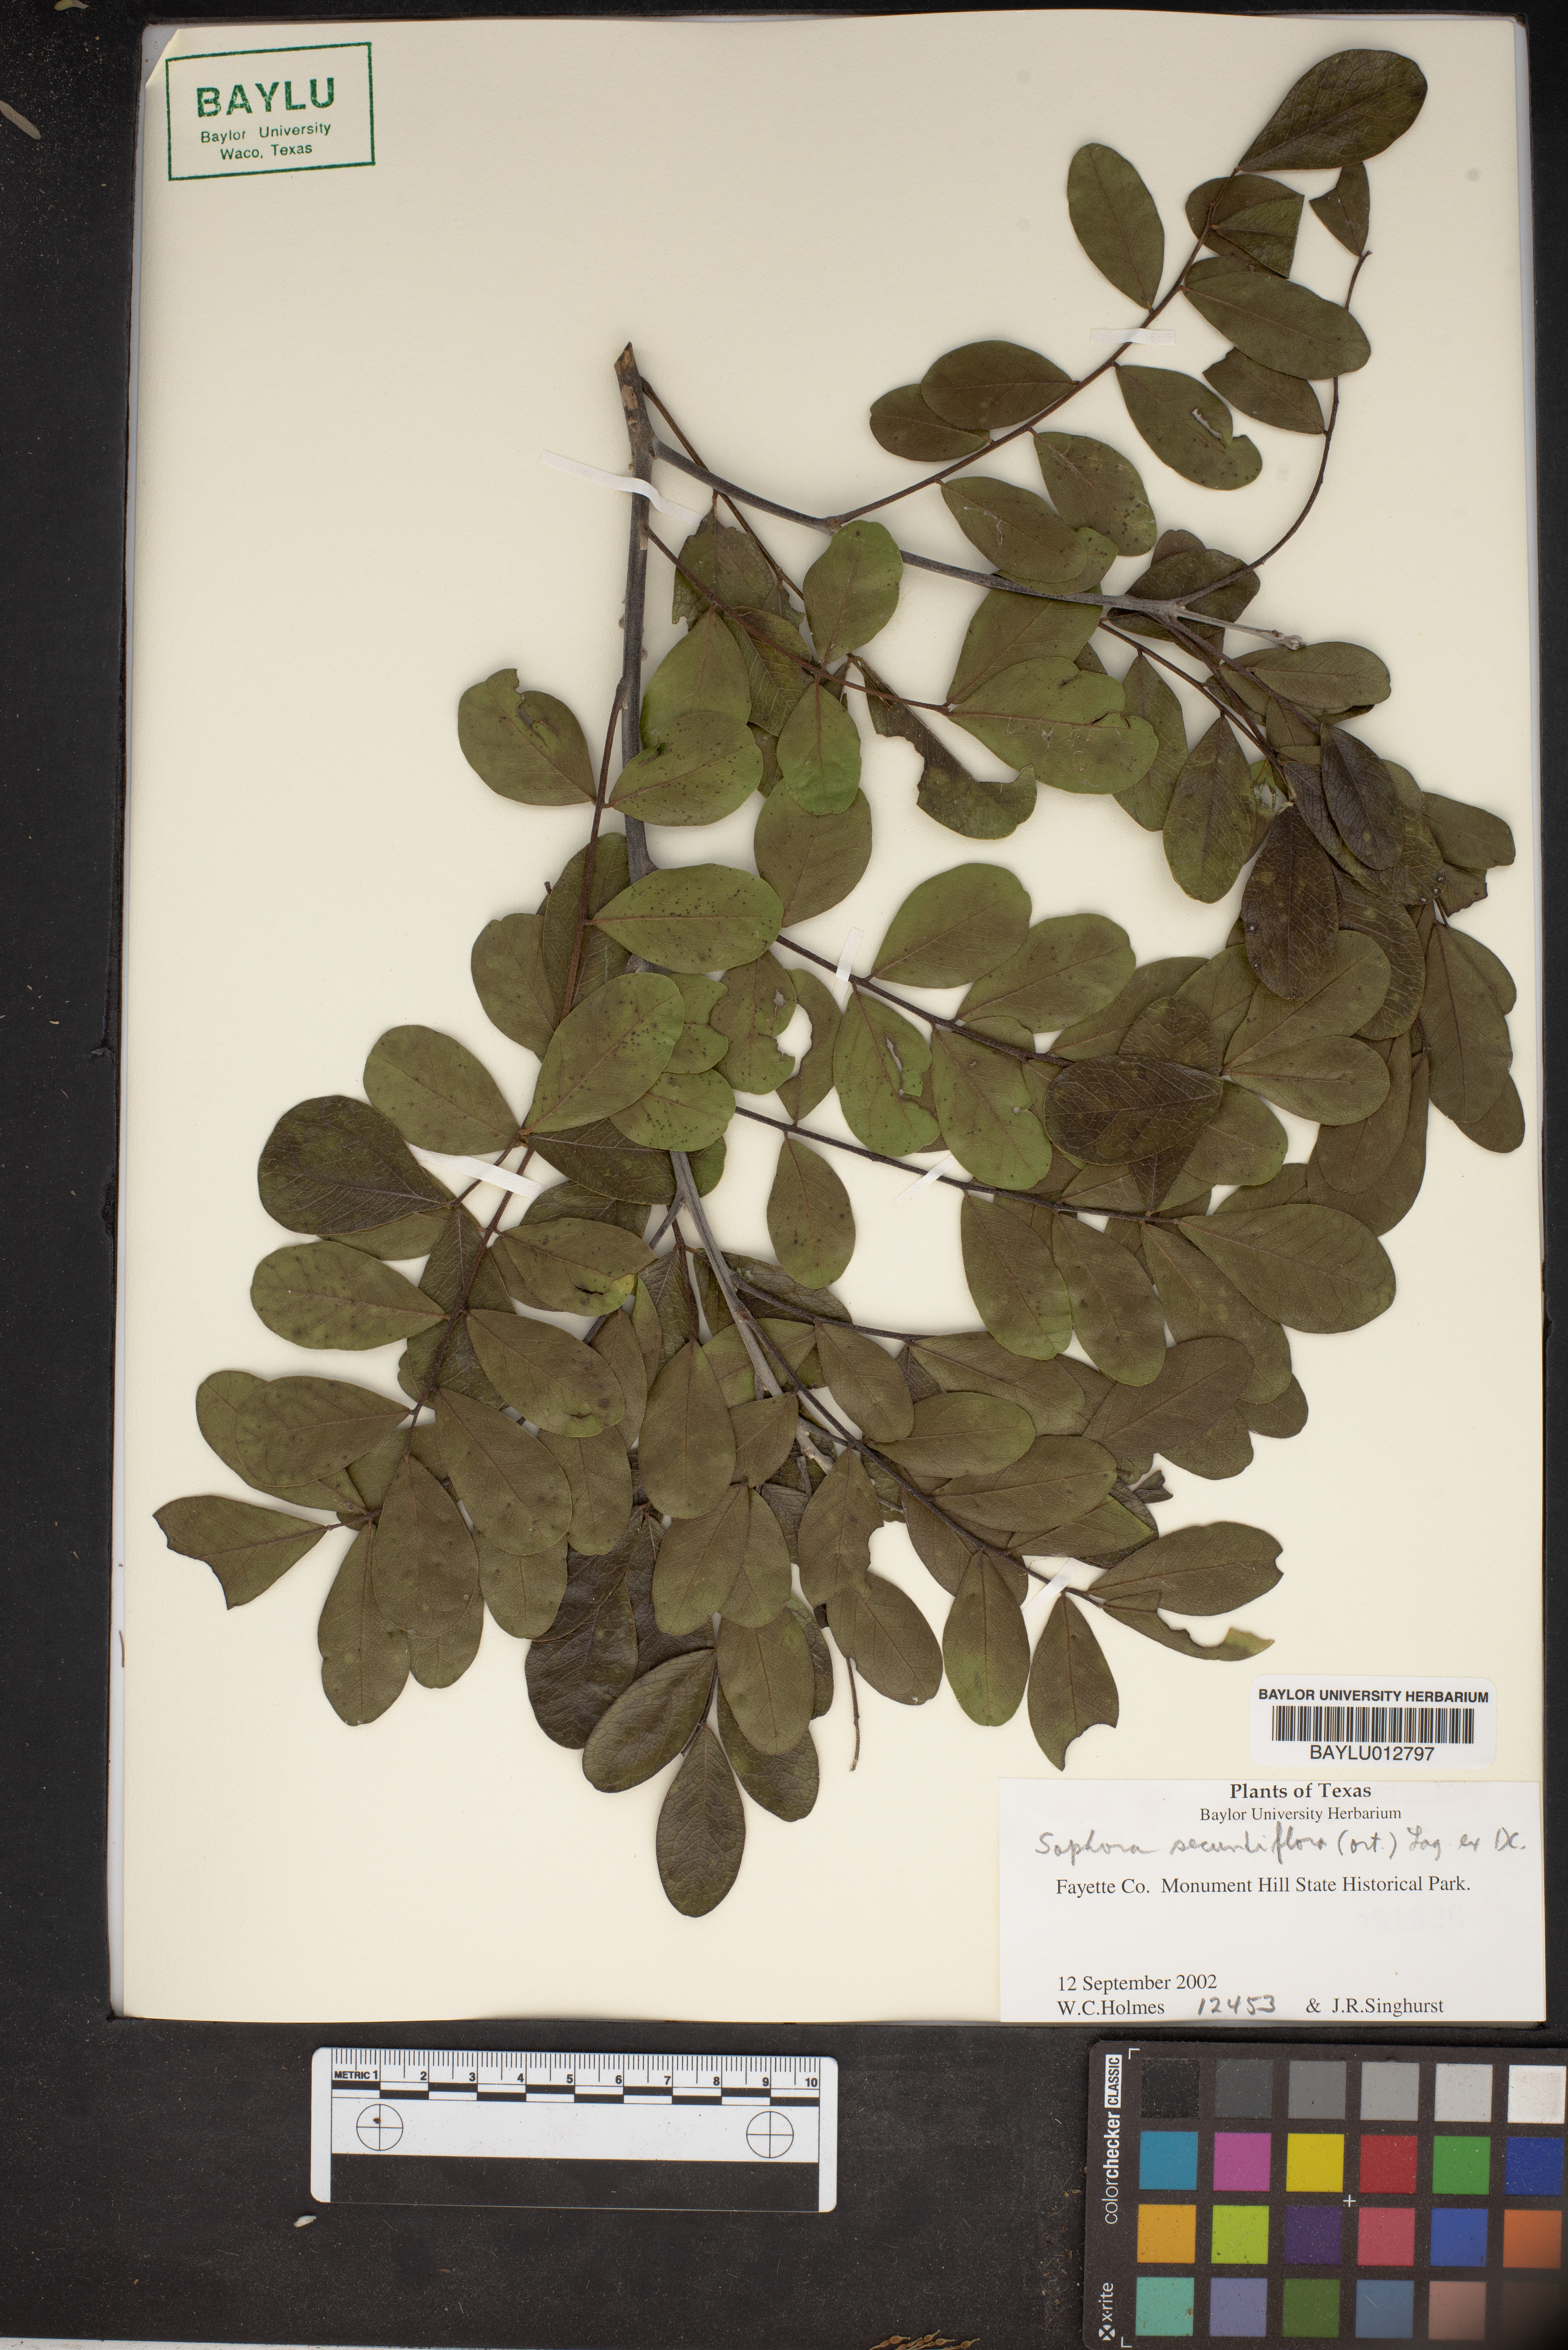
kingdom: Plantae
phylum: Tracheophyta
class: Magnoliopsida
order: Fabales
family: Fabaceae
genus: Dermatophyllum
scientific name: Dermatophyllum secundiflorum
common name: Texas-mountain-laurel
